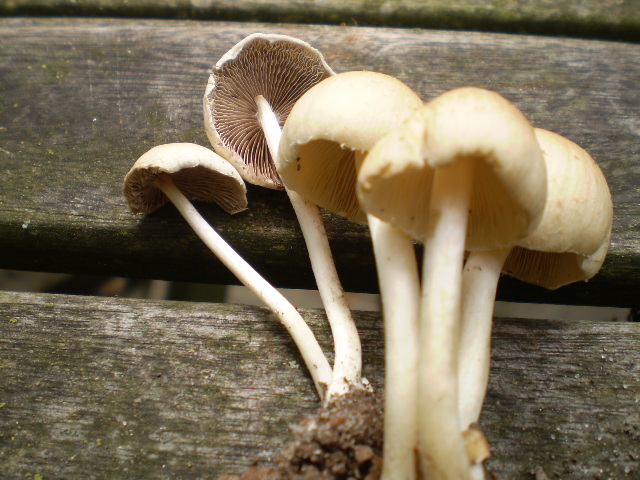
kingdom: Fungi
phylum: Basidiomycota
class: Agaricomycetes
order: Agaricales
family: Psathyrellaceae
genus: Candolleomyces
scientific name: Candolleomyces candolleanus
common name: Candolles mørkhat
